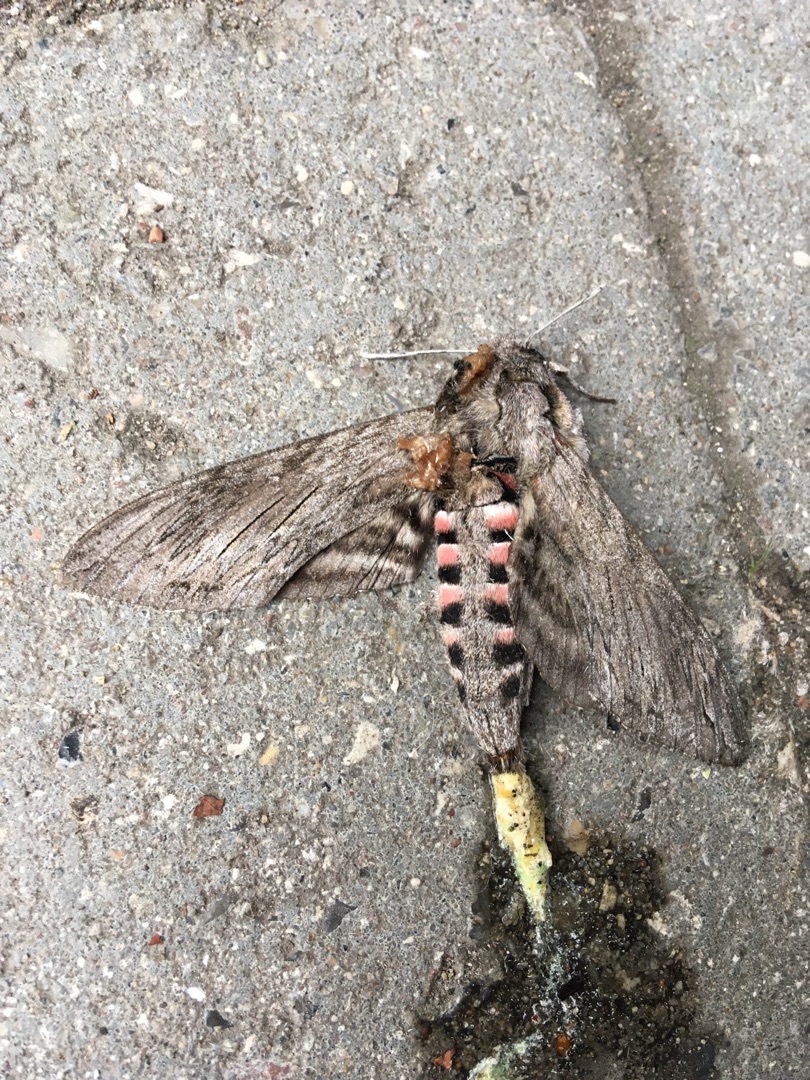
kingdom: Animalia
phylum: Arthropoda
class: Insecta
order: Lepidoptera
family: Sphingidae
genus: Agrius
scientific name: Agrius convolvuli
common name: Snerlesværmer
